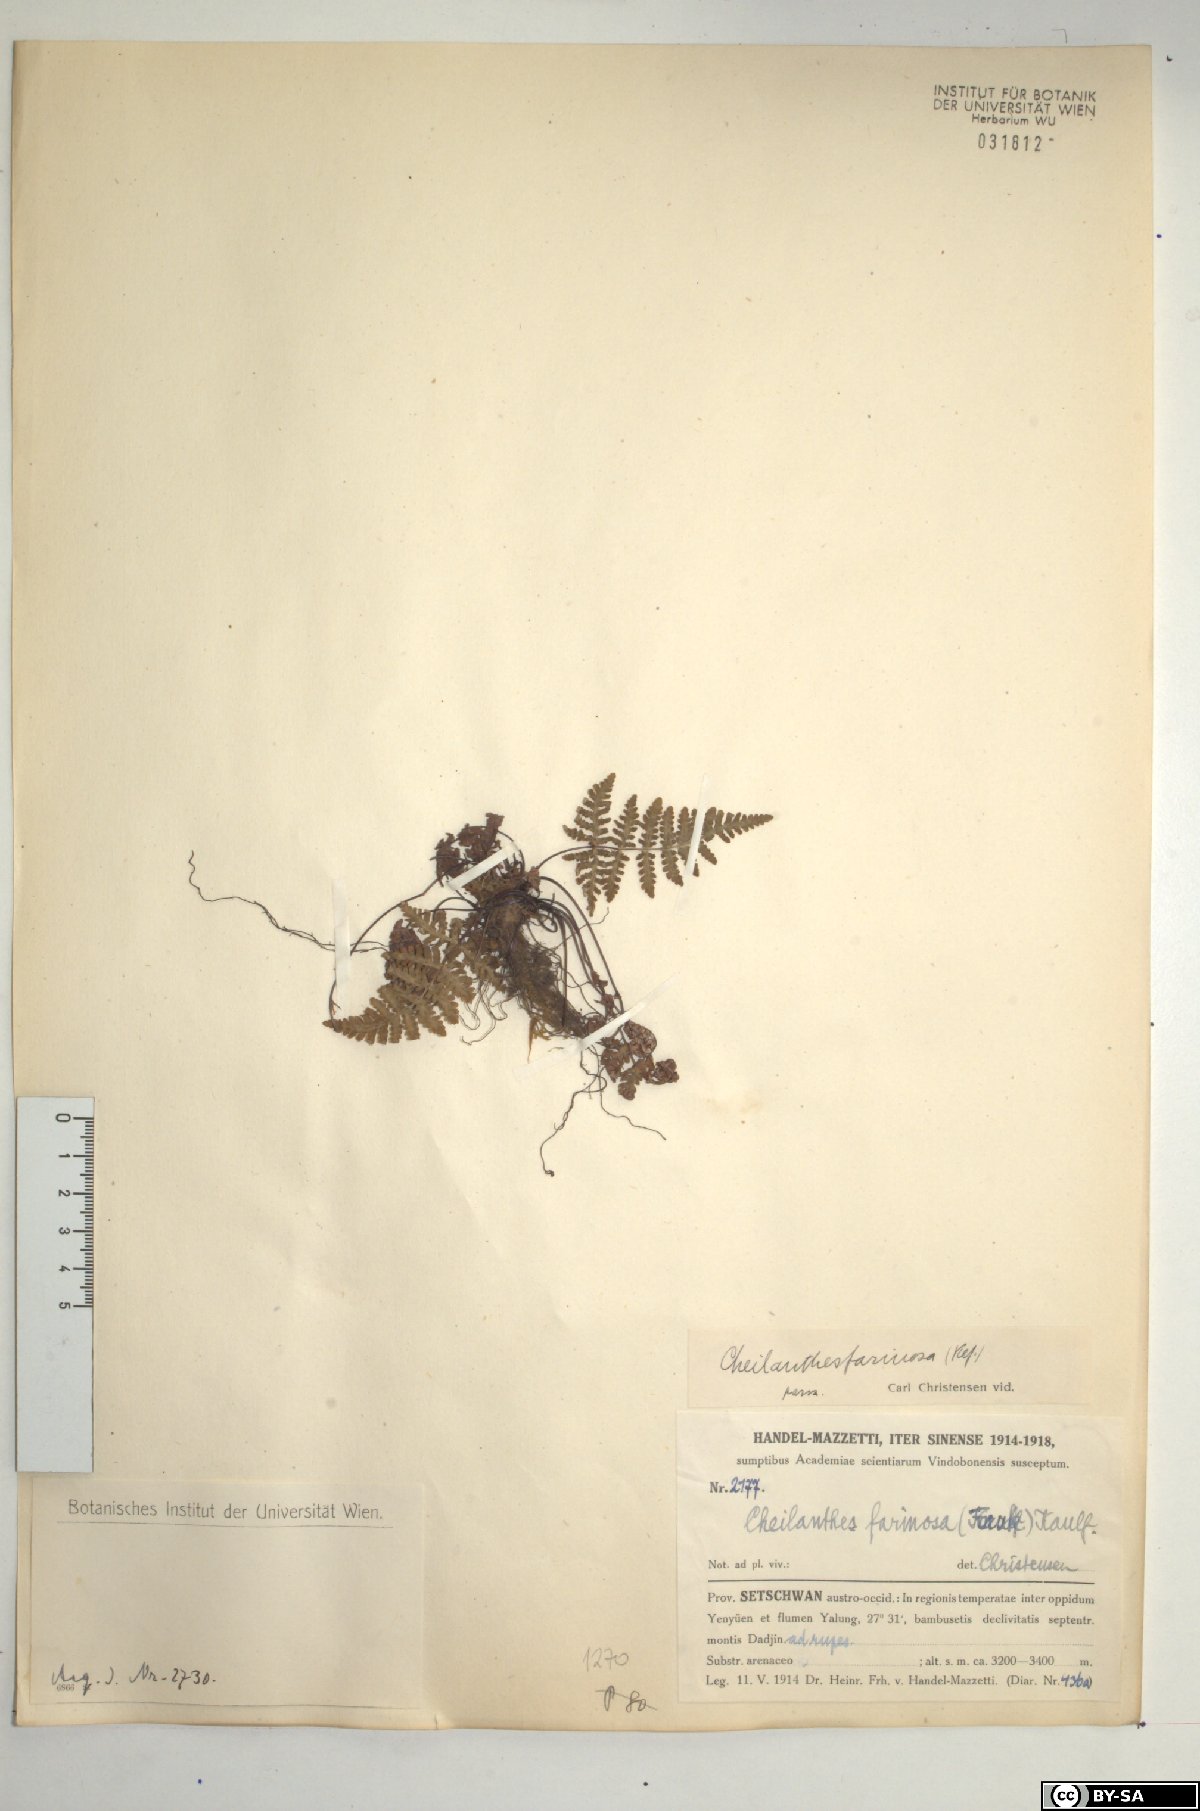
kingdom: Plantae
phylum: Tracheophyta
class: Polypodiopsida
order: Polypodiales
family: Pteridaceae
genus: Aleuritopteris
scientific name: Aleuritopteris farinosa
